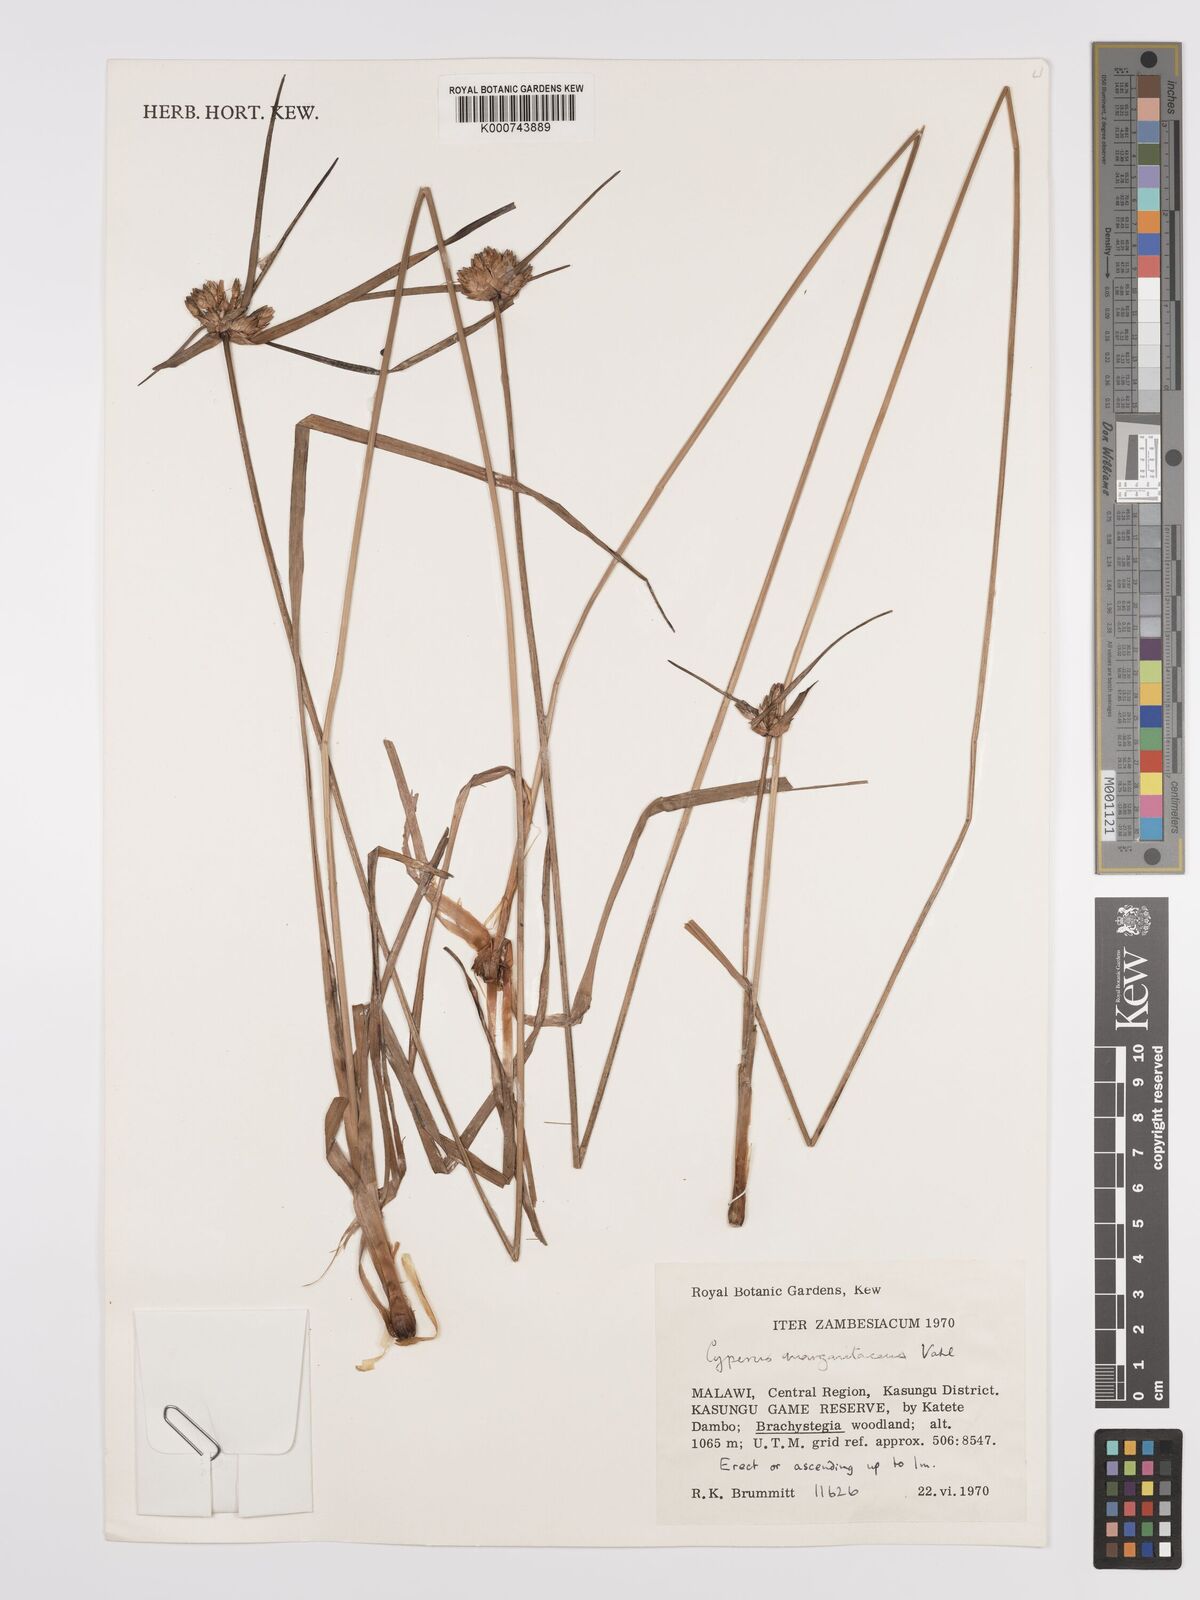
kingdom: Plantae
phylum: Tracheophyta
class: Liliopsida
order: Poales
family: Cyperaceae
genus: Cyperus
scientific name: Cyperus margaritaceus
